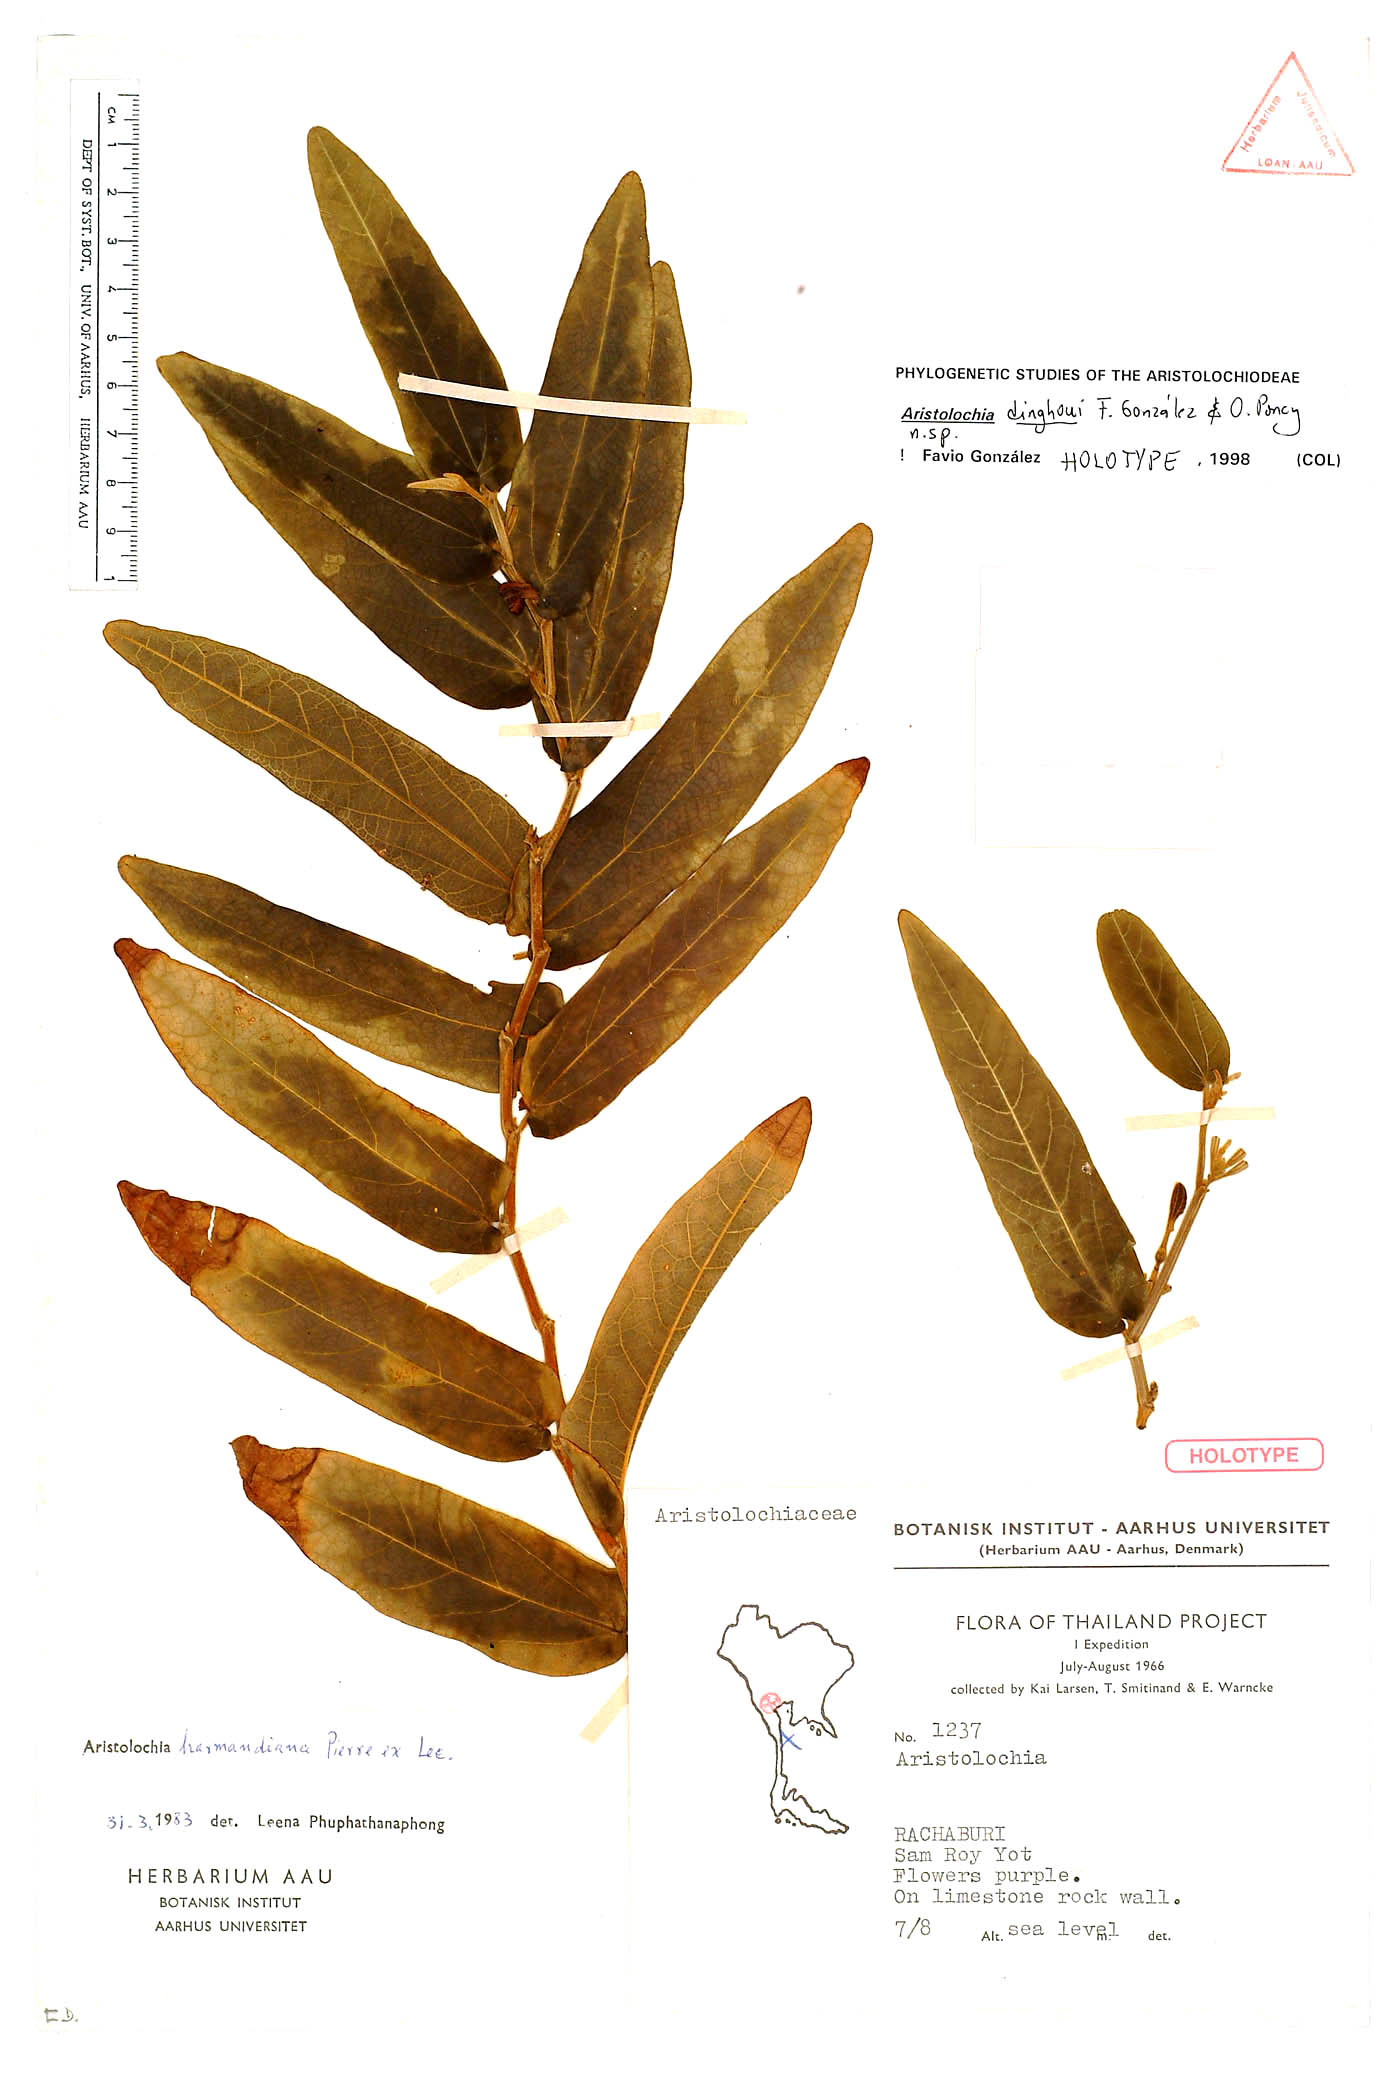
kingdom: Plantae
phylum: Tracheophyta
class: Magnoliopsida
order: Piperales
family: Aristolochiaceae
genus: Aristolochia
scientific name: Aristolochia dinghoui
